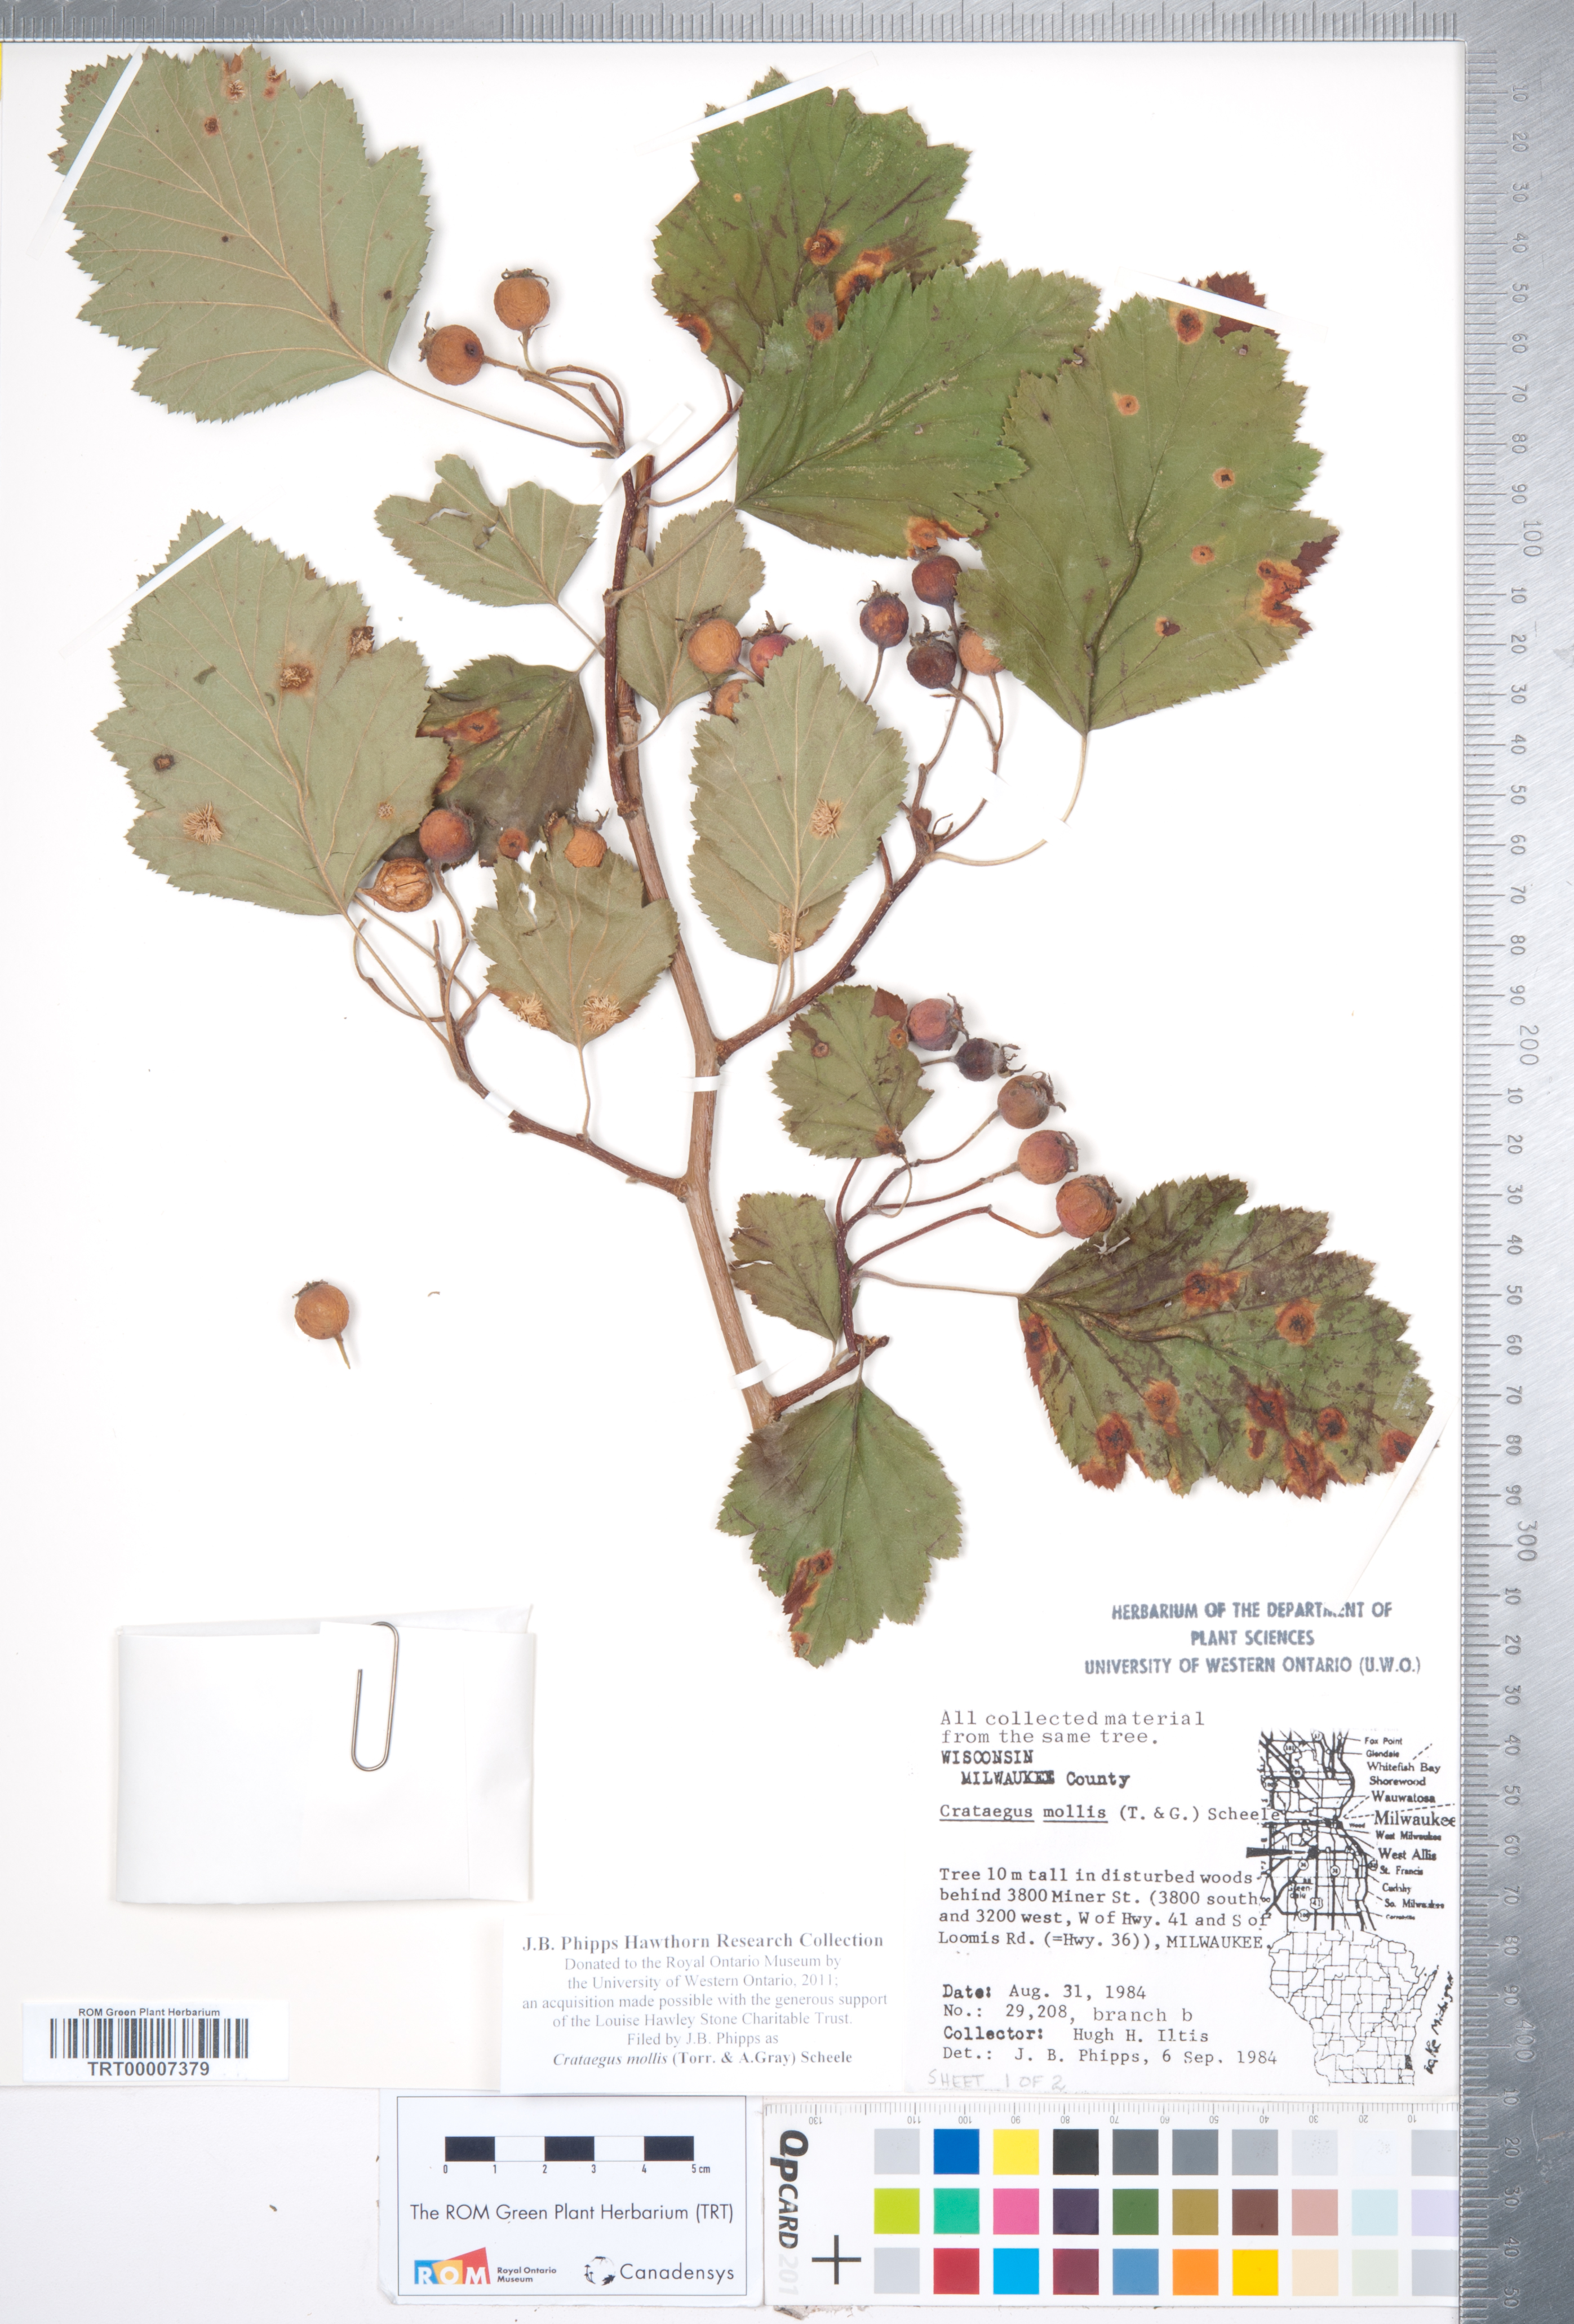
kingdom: Plantae
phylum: Tracheophyta
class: Magnoliopsida
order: Rosales
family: Rosaceae
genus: Crataegus
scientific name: Crataegus mollis
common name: Downy hawthorn
